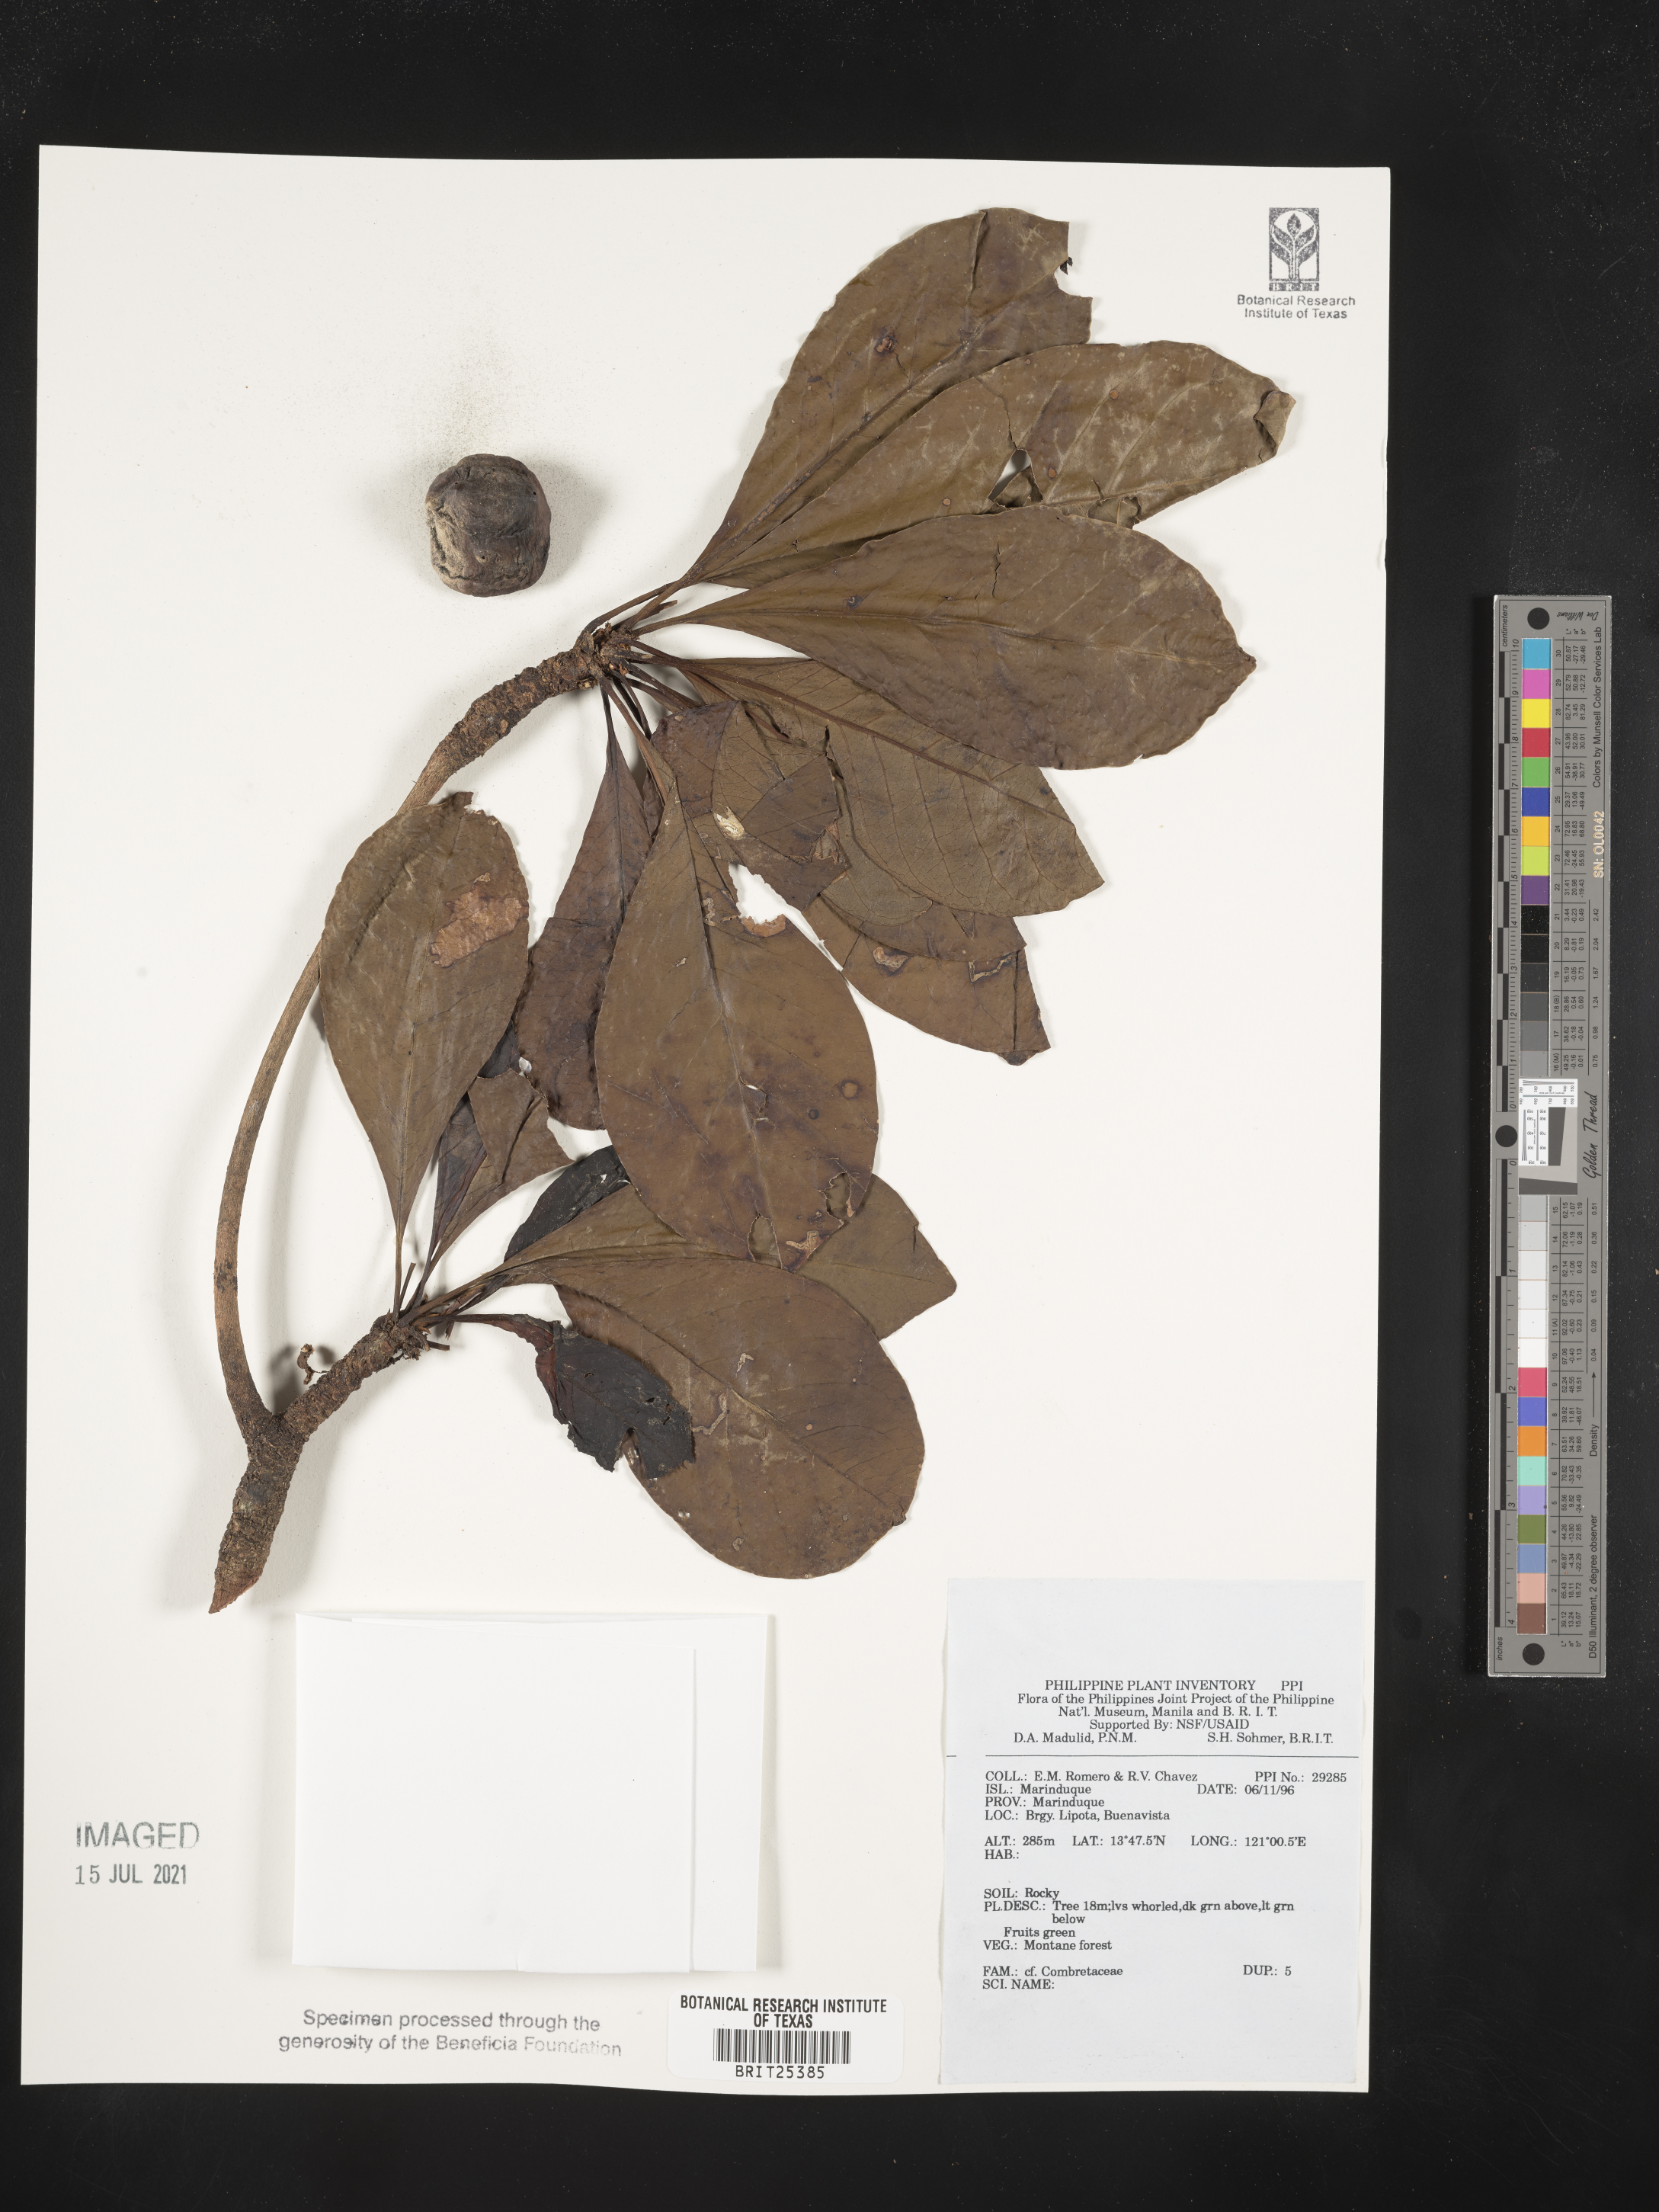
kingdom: Plantae
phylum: Tracheophyta
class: Magnoliopsida
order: Myrtales
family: Combretaceae
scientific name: Combretaceae
